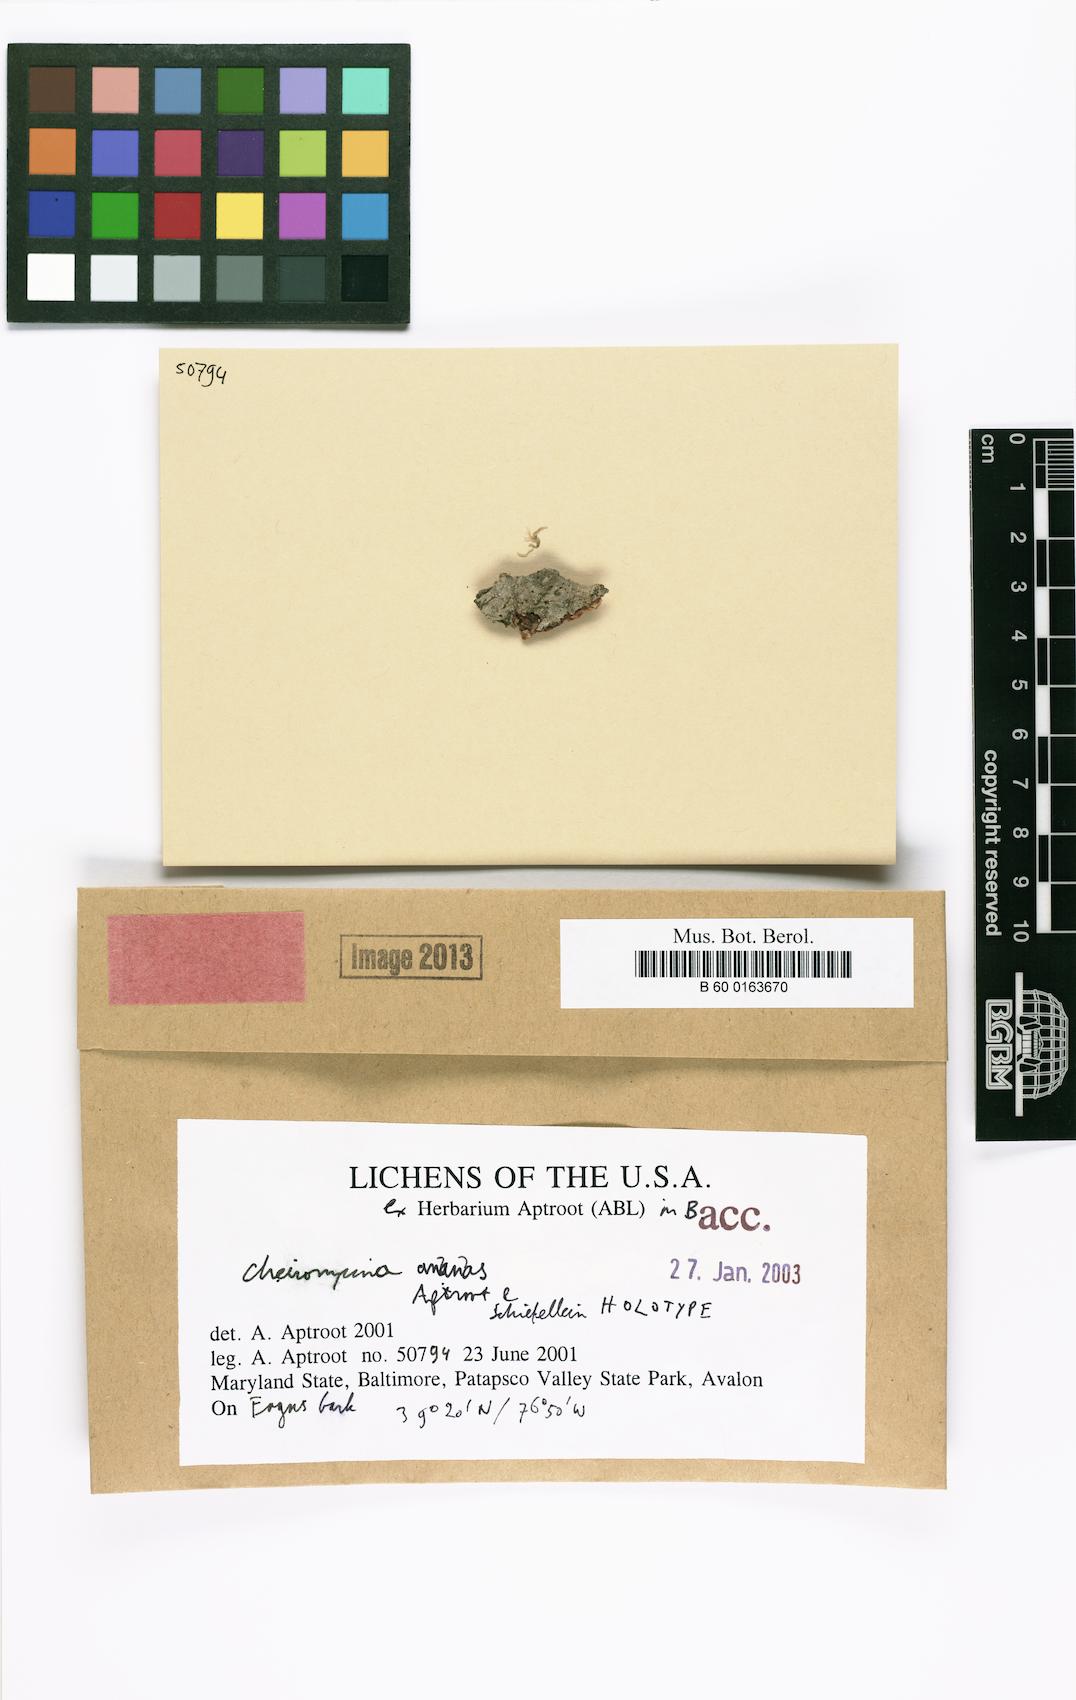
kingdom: Fungi
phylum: Ascomycota
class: Lecanoromycetes
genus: Dictyocatenulata
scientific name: Dictyocatenulata alba
